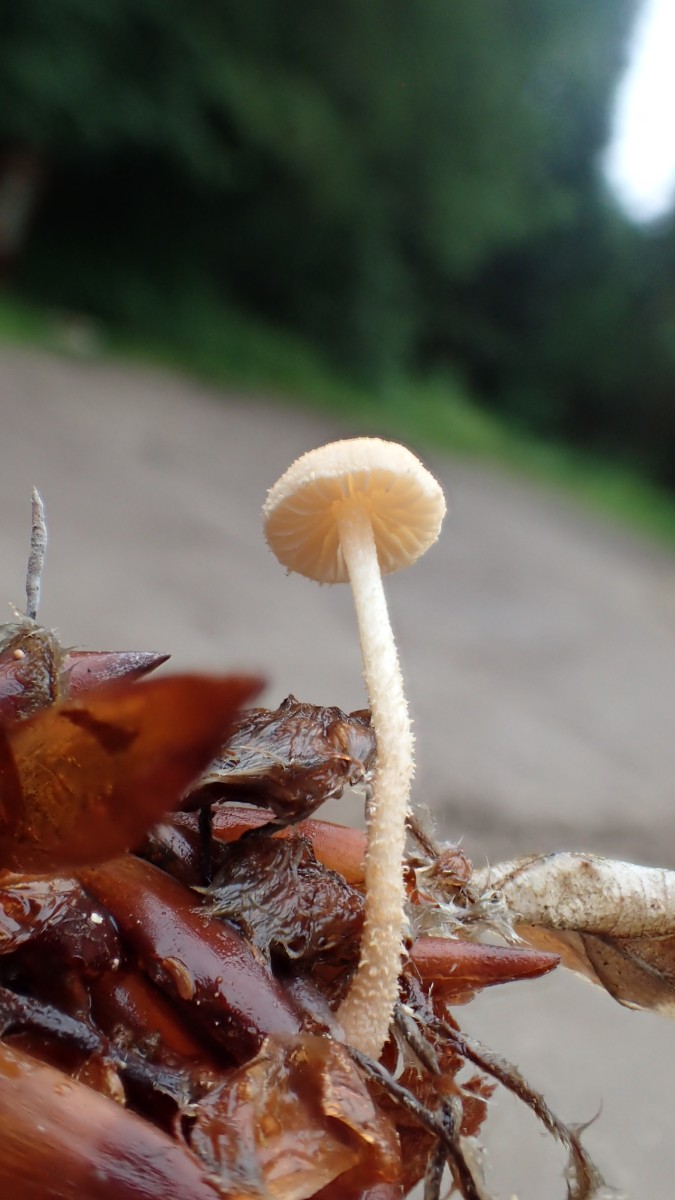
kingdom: Fungi
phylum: Basidiomycota
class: Agaricomycetes
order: Agaricales
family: Tubariaceae
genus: Flammulaster
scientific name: Flammulaster carpophilus
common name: bøge-grynskælhat
